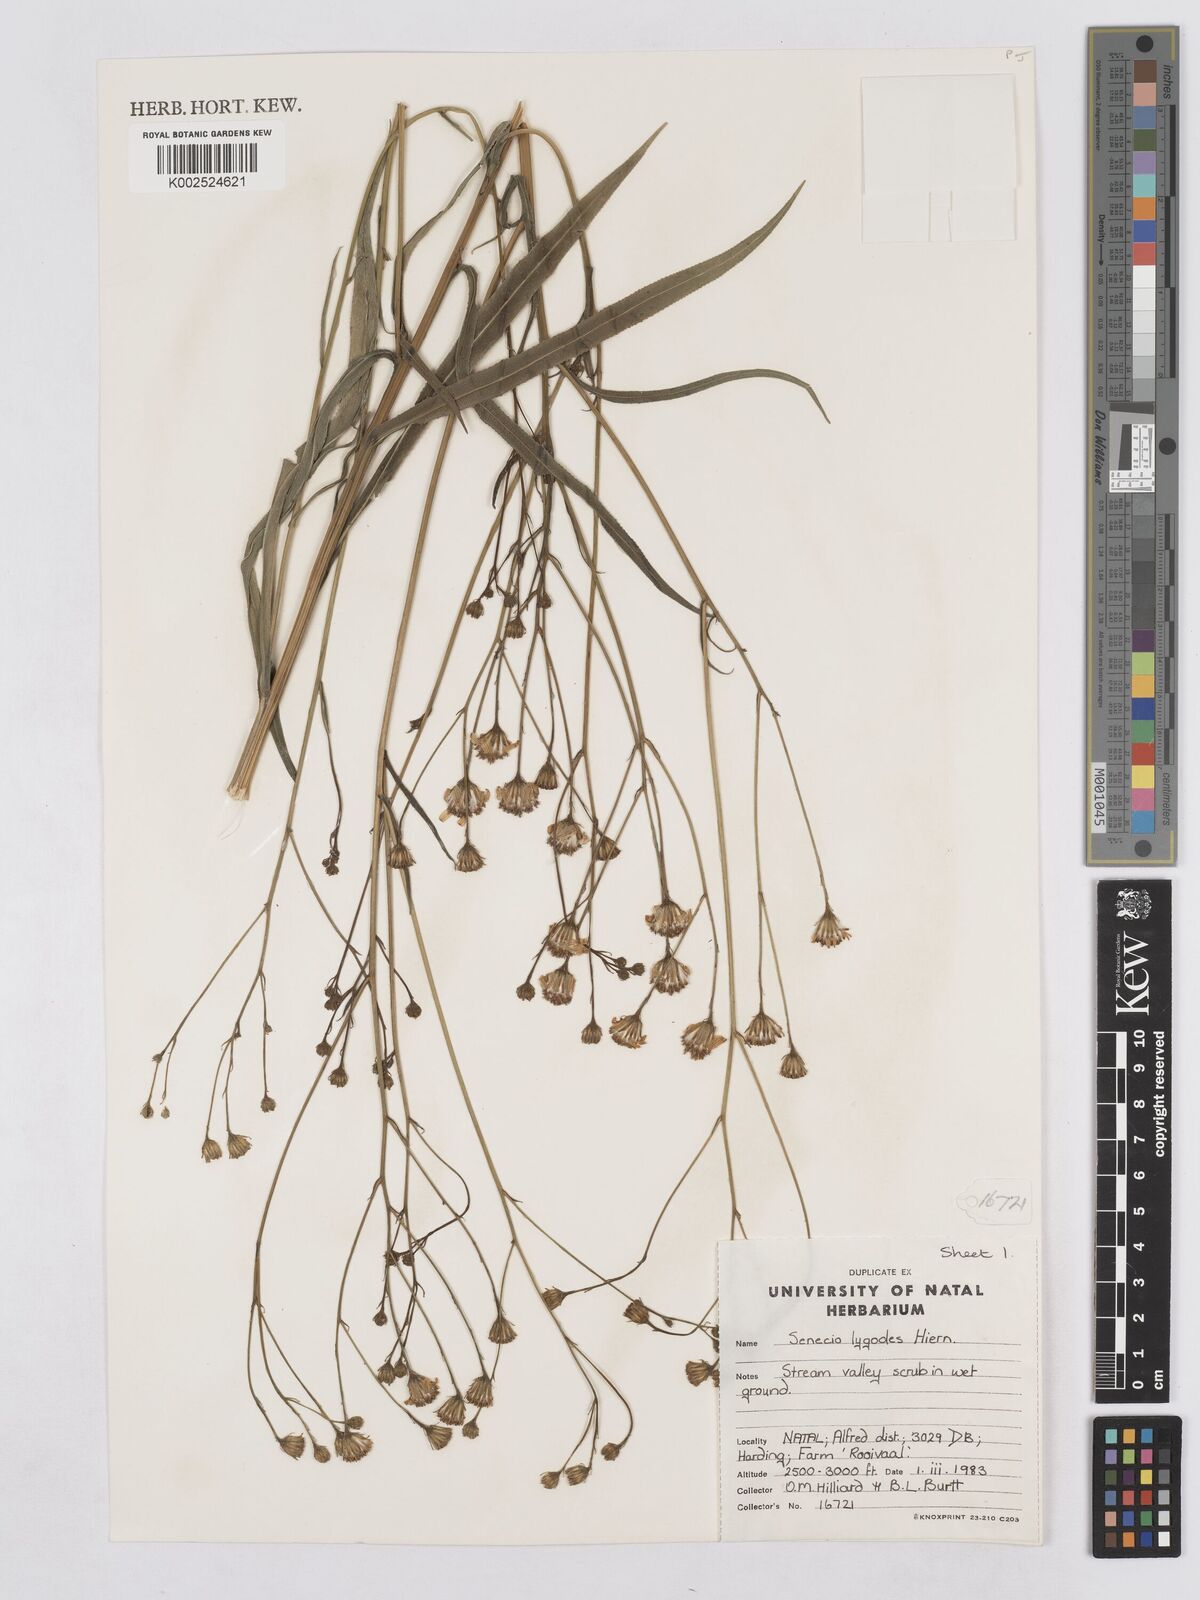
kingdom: Plantae
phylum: Tracheophyta
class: Magnoliopsida
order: Asterales
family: Asteraceae
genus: Senecio
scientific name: Senecio inornatus
